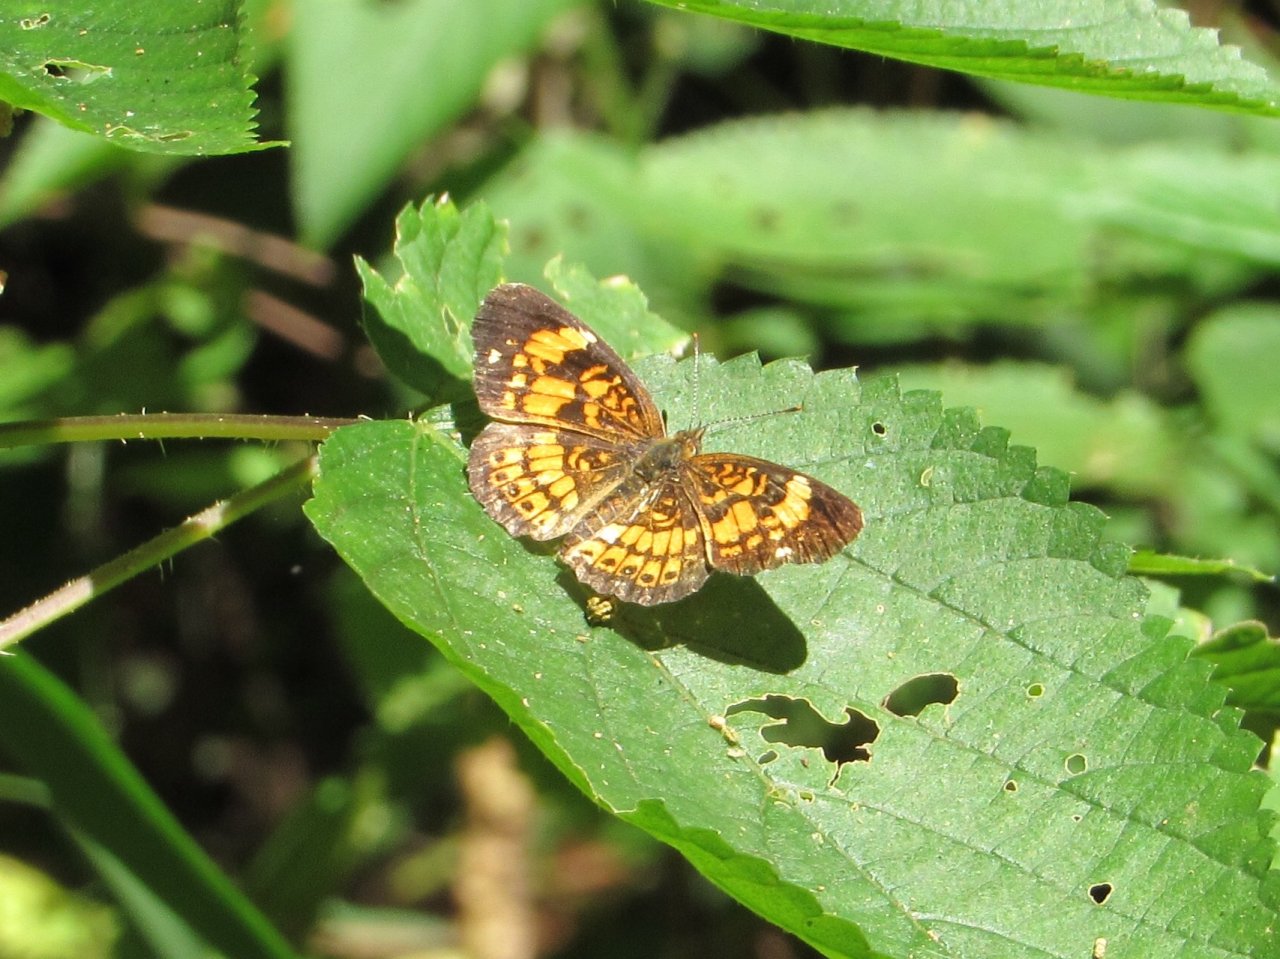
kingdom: Animalia
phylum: Arthropoda
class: Insecta
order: Lepidoptera
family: Nymphalidae
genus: Chlosyne
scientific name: Chlosyne nycteis
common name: Silvery Checkerspot
